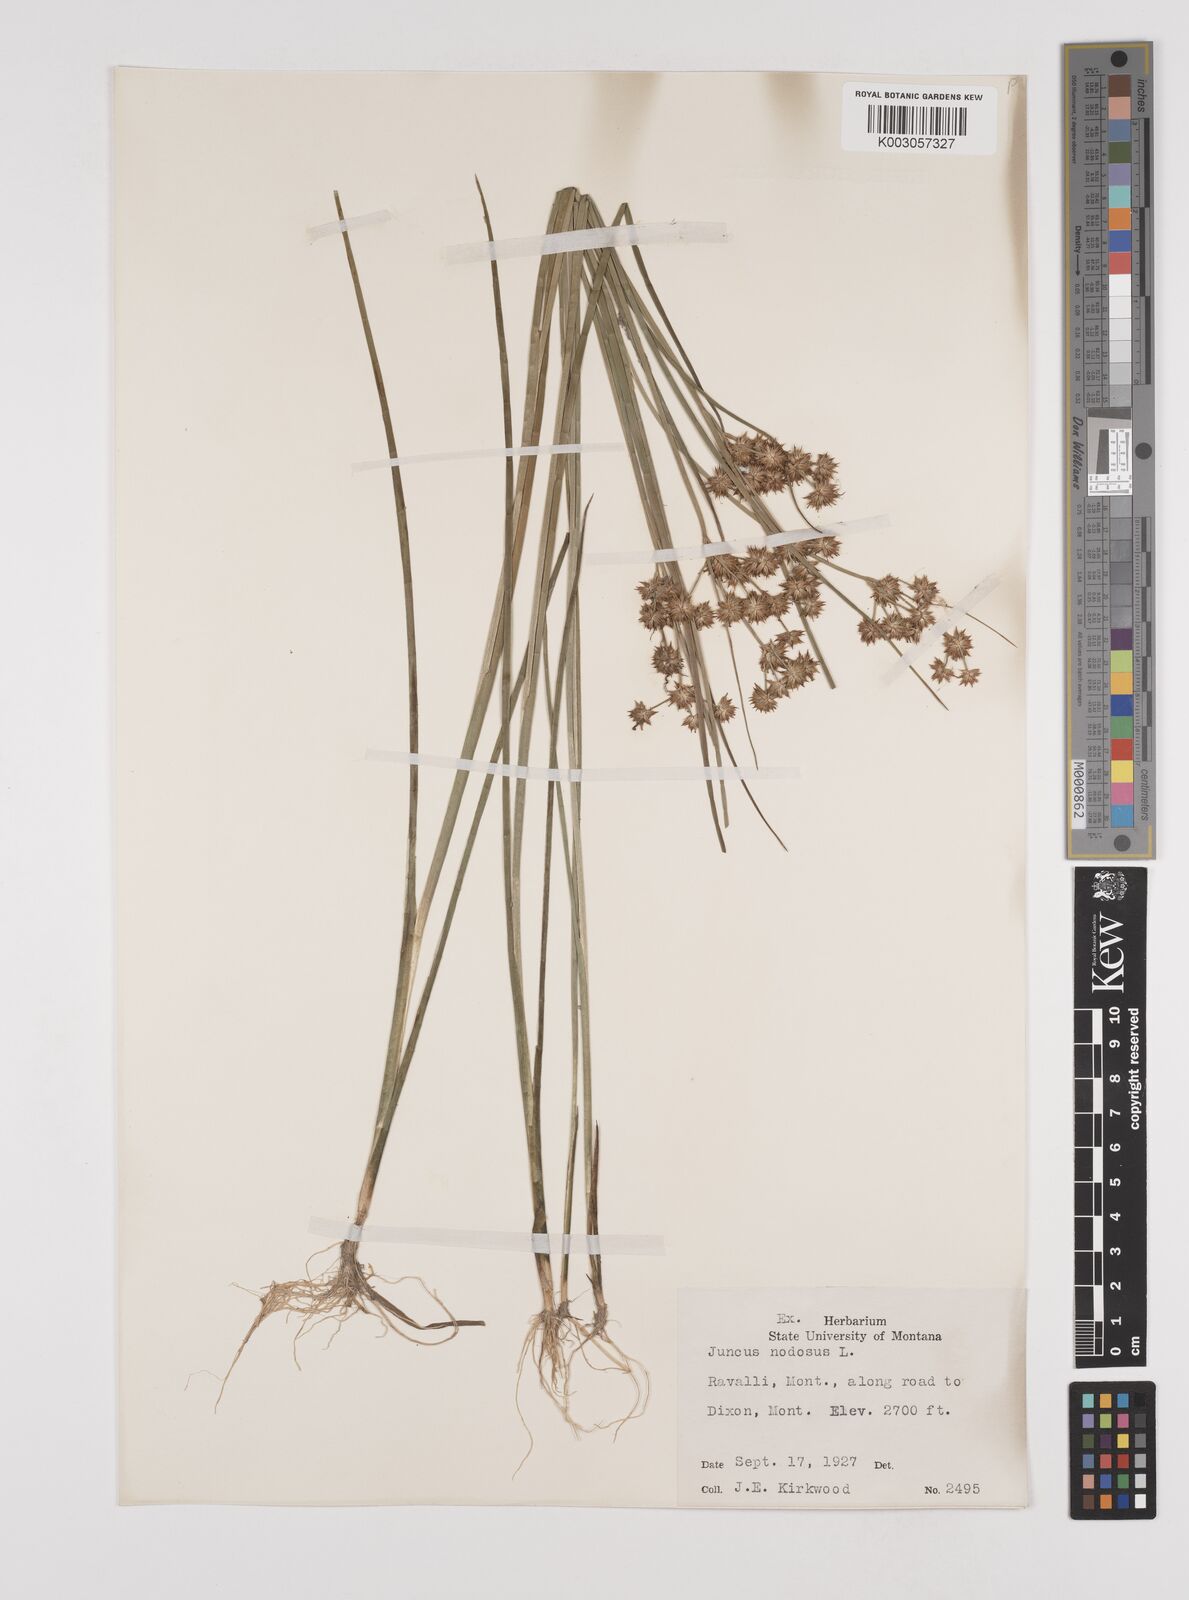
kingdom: Plantae
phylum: Tracheophyta
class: Liliopsida
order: Poales
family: Juncaceae
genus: Juncus
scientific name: Juncus nodosus
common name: Knotted rush
